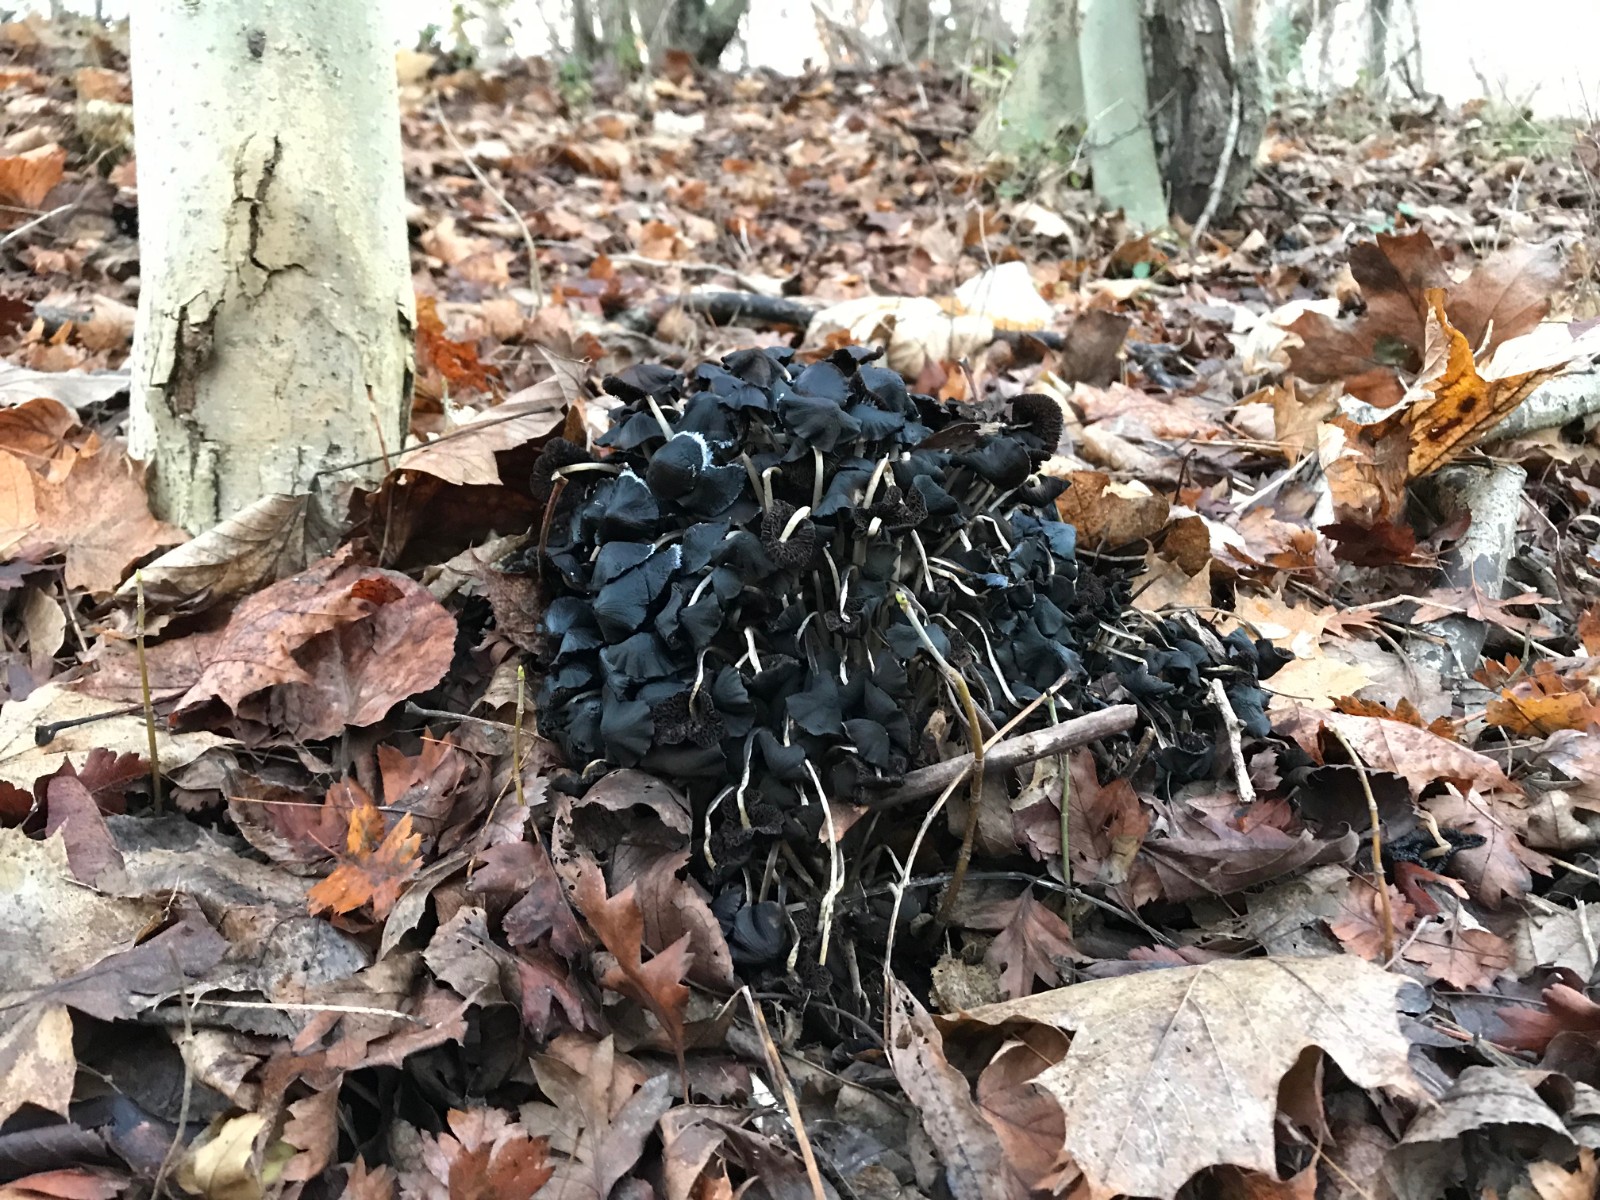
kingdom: Fungi
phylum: Basidiomycota
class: Agaricomycetes
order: Agaricales
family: Psathyrellaceae
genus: Britzelmayria
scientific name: Britzelmayria multipedata
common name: knippe-mørkhat
